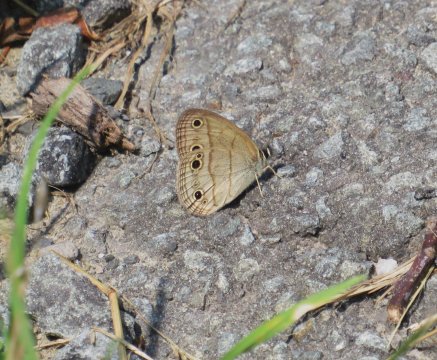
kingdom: Animalia
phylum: Arthropoda
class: Insecta
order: Lepidoptera
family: Nymphalidae
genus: Euptychia
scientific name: Euptychia cymela
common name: Little Wood Satyr
